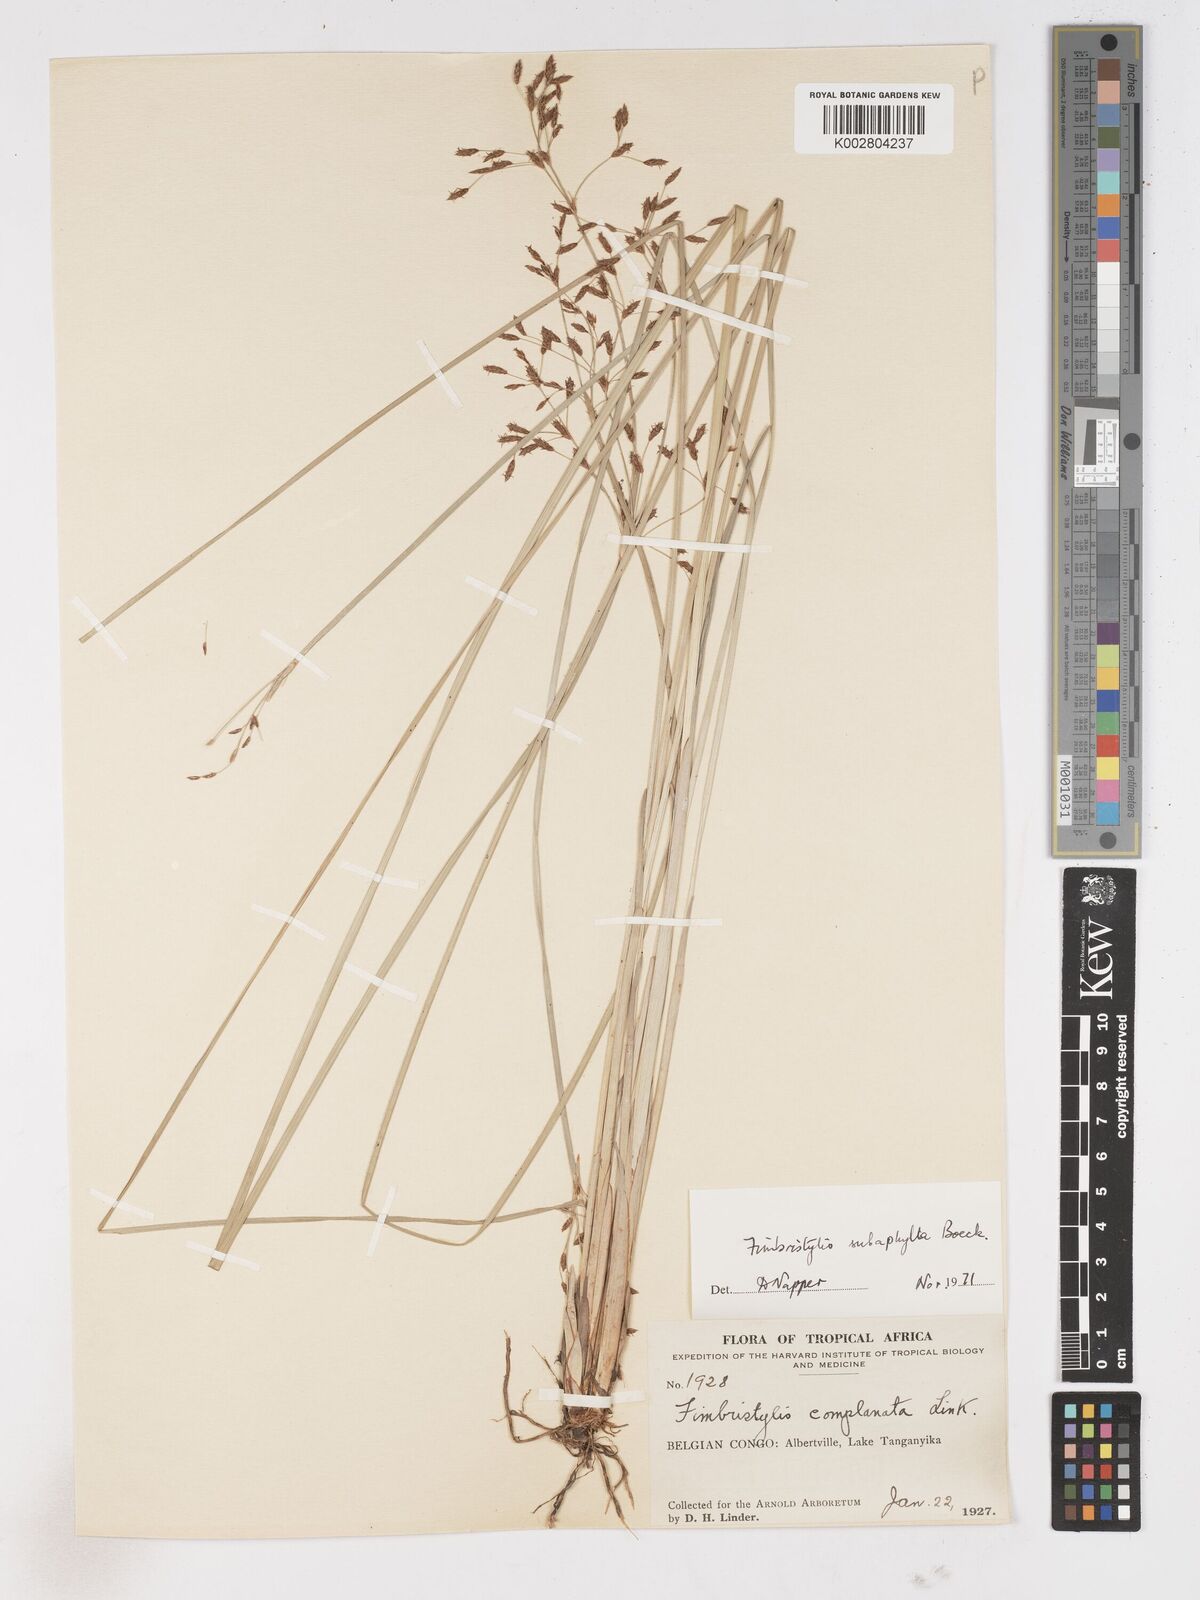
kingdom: Plantae
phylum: Tracheophyta
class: Liliopsida
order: Poales
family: Cyperaceae
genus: Fimbristylis
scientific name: Fimbristylis subaphylla
